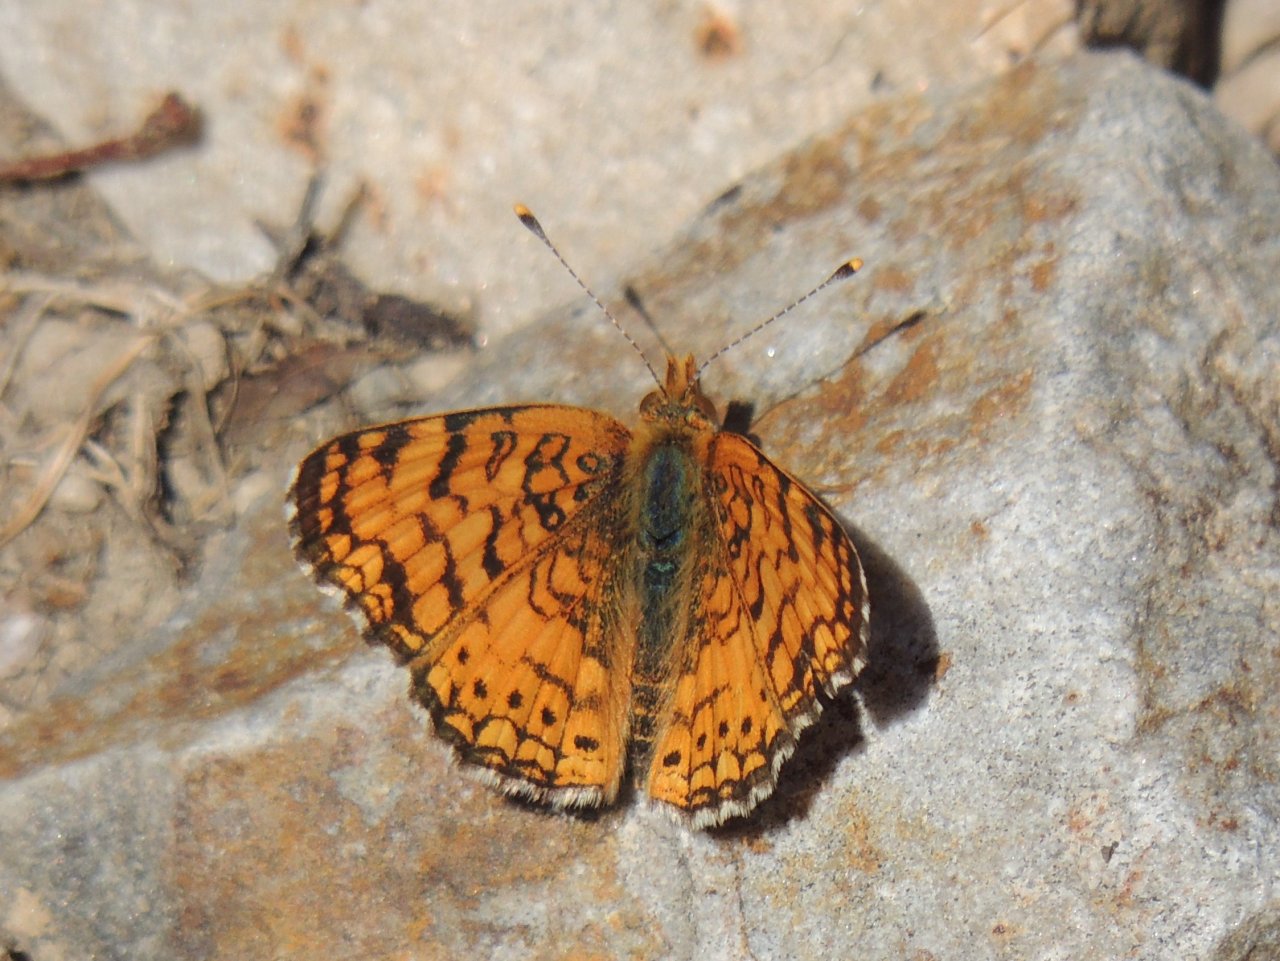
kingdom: Animalia
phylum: Arthropoda
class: Insecta
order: Lepidoptera
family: Nymphalidae
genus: Eresia
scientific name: Eresia aveyrona
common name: Mylitta Crescent
